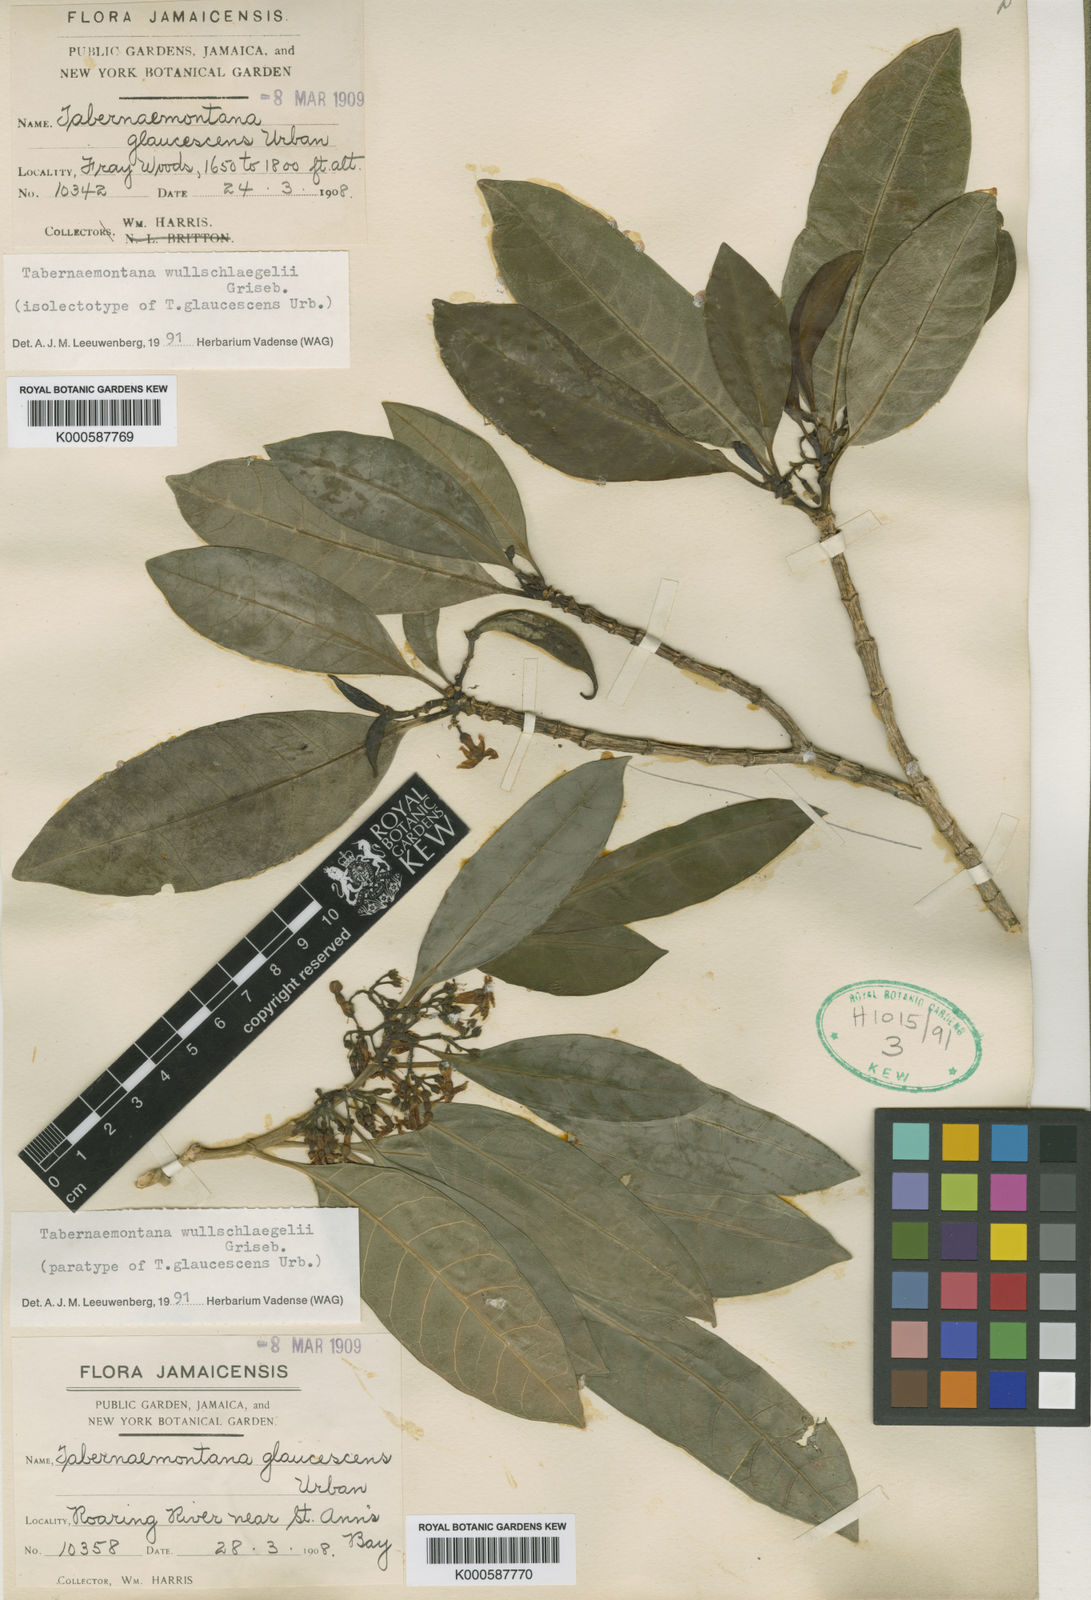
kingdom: Plantae
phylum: Tracheophyta
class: Magnoliopsida
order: Gentianales
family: Apocynaceae
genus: Tabernaemontana
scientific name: Tabernaemontana wullschlaegelii
